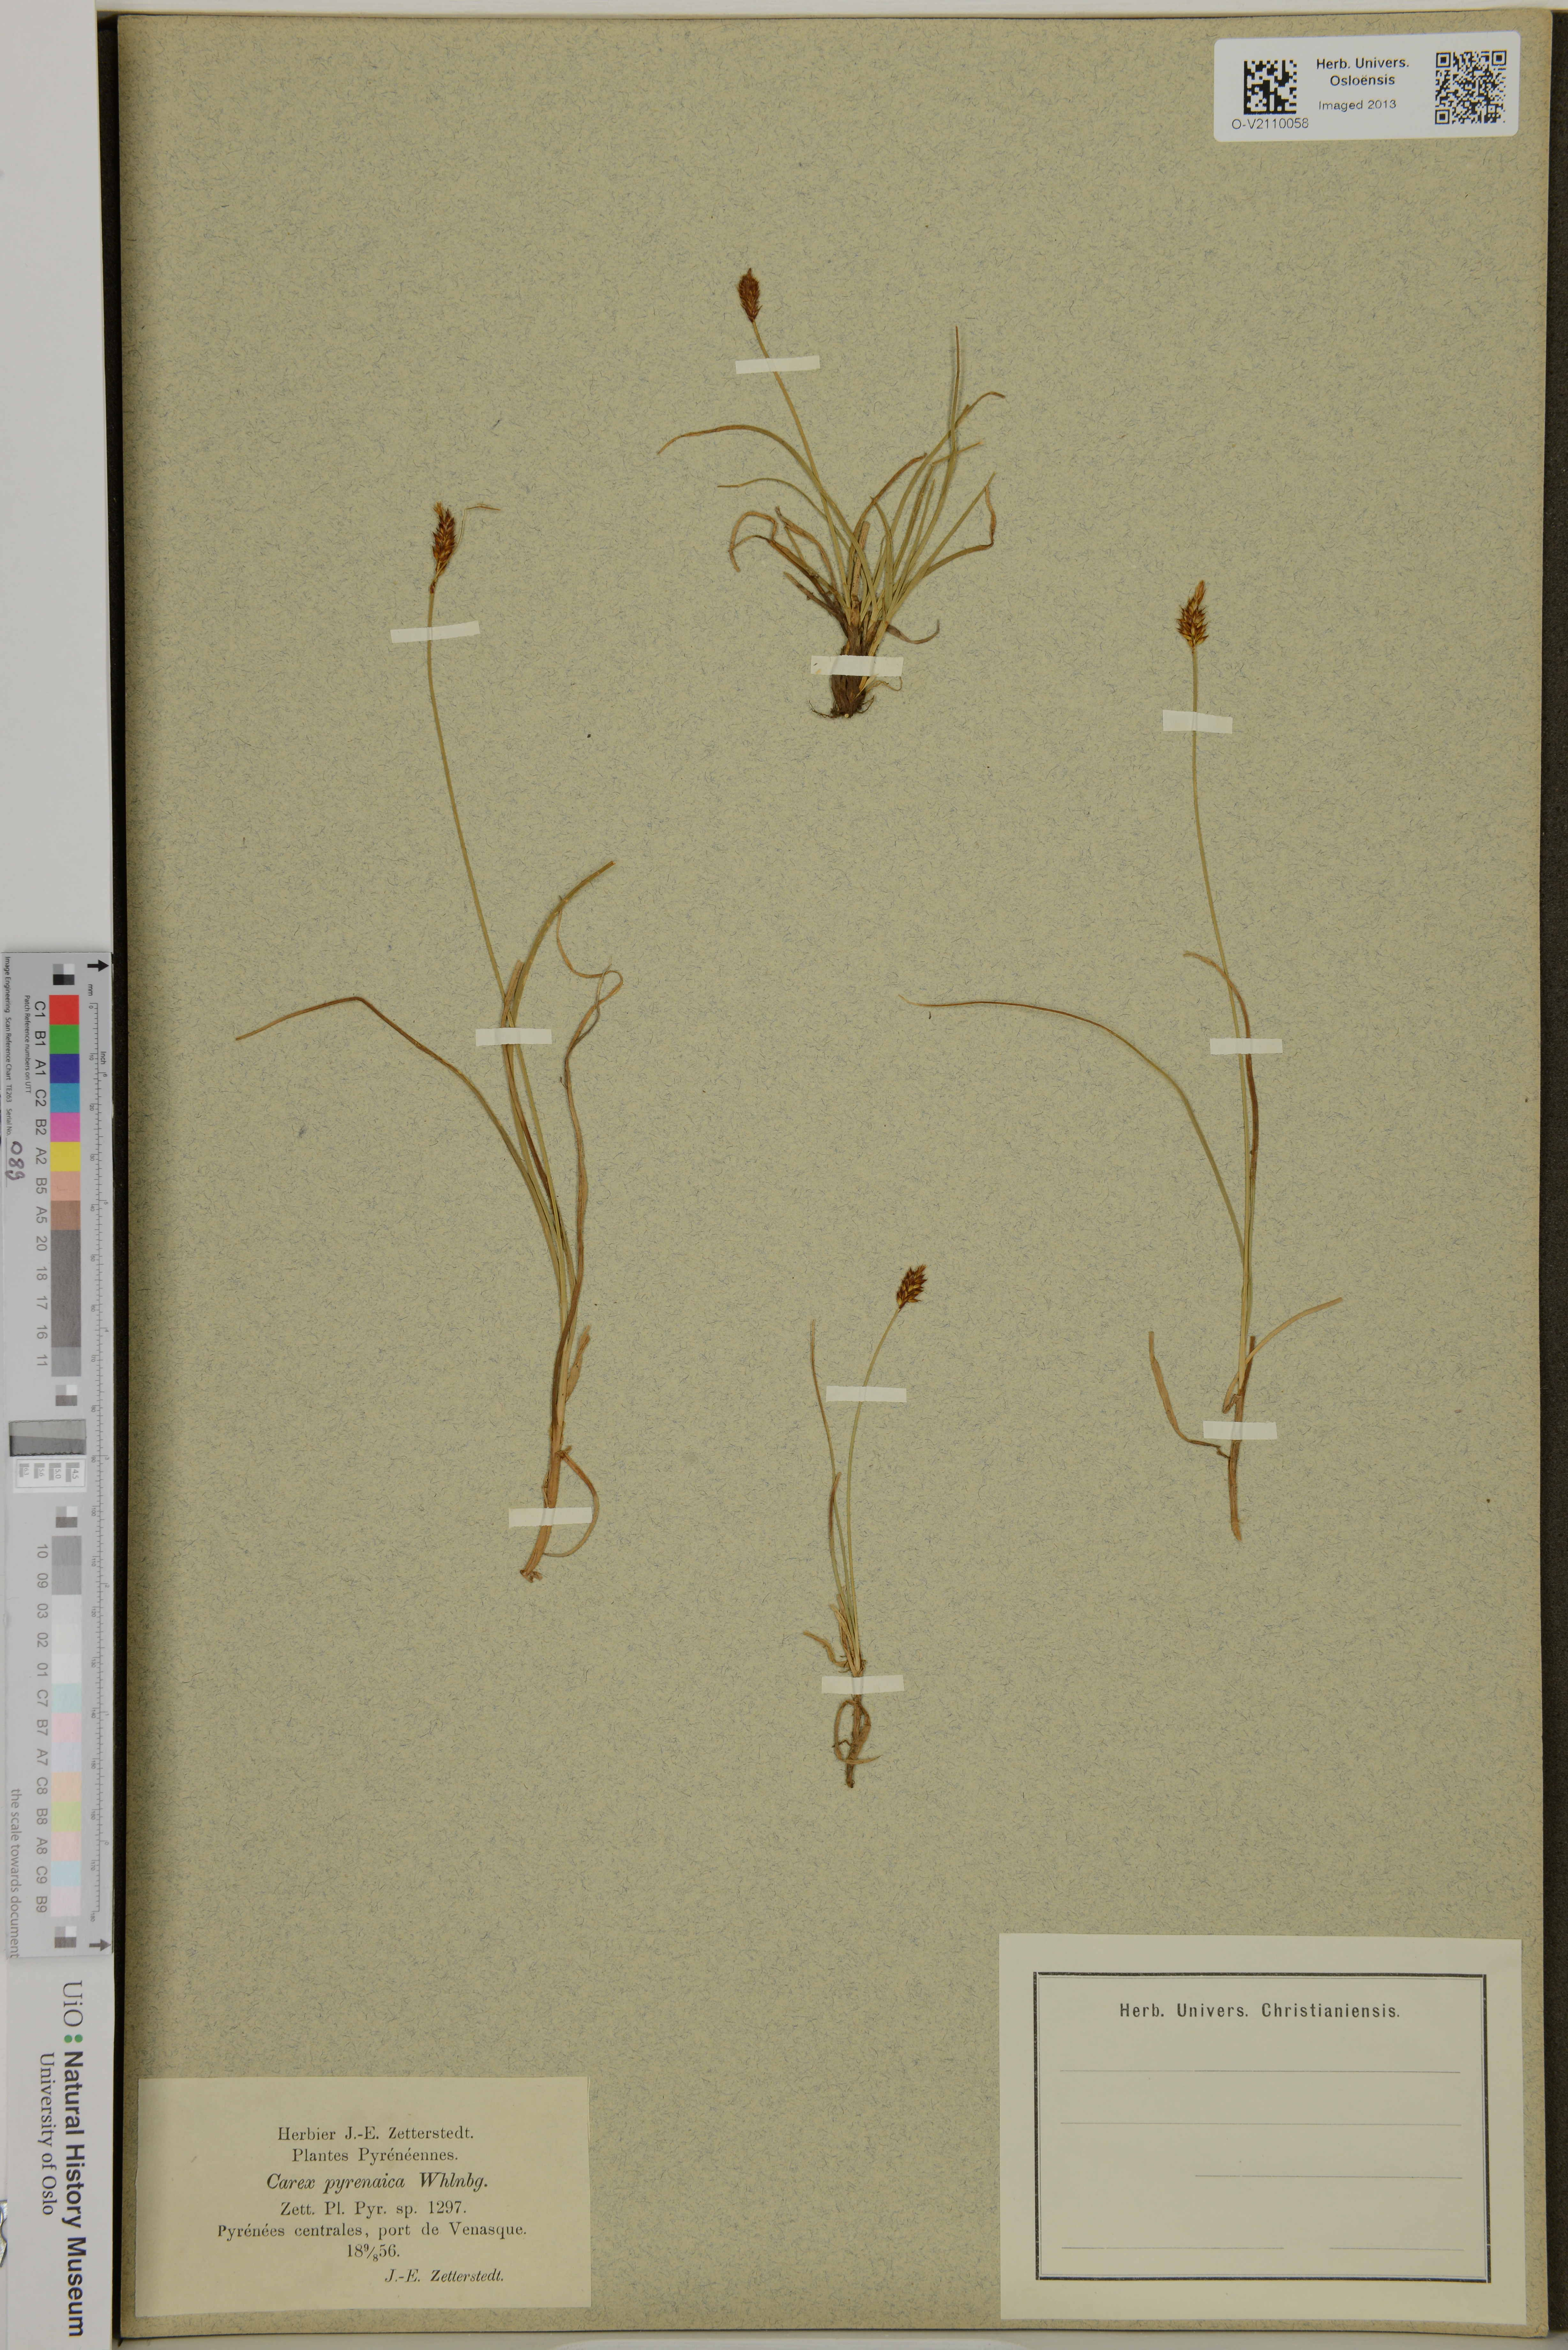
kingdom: Plantae
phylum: Tracheophyta
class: Liliopsida
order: Poales
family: Cyperaceae
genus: Carex
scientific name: Carex pyrenaica
